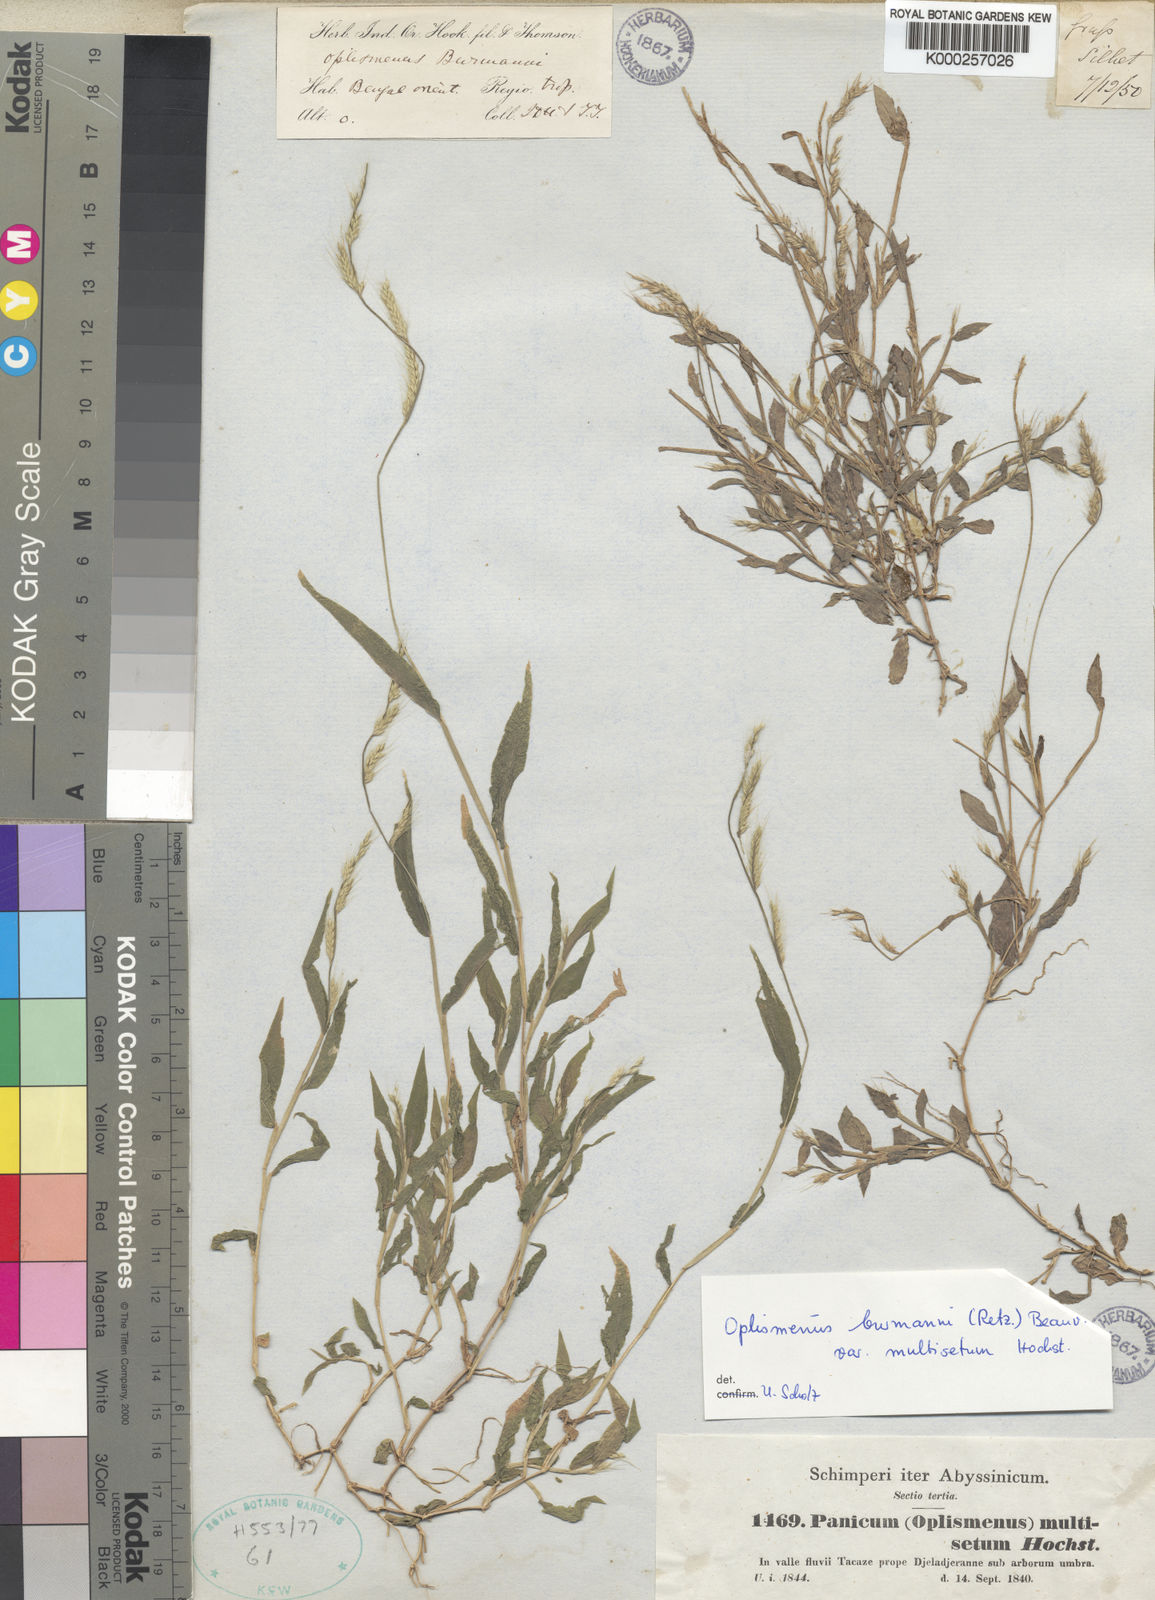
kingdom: Plantae
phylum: Tracheophyta
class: Liliopsida
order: Poales
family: Poaceae
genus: Oplismenus
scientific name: Oplismenus burmanni
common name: Burmann's basketgrass
